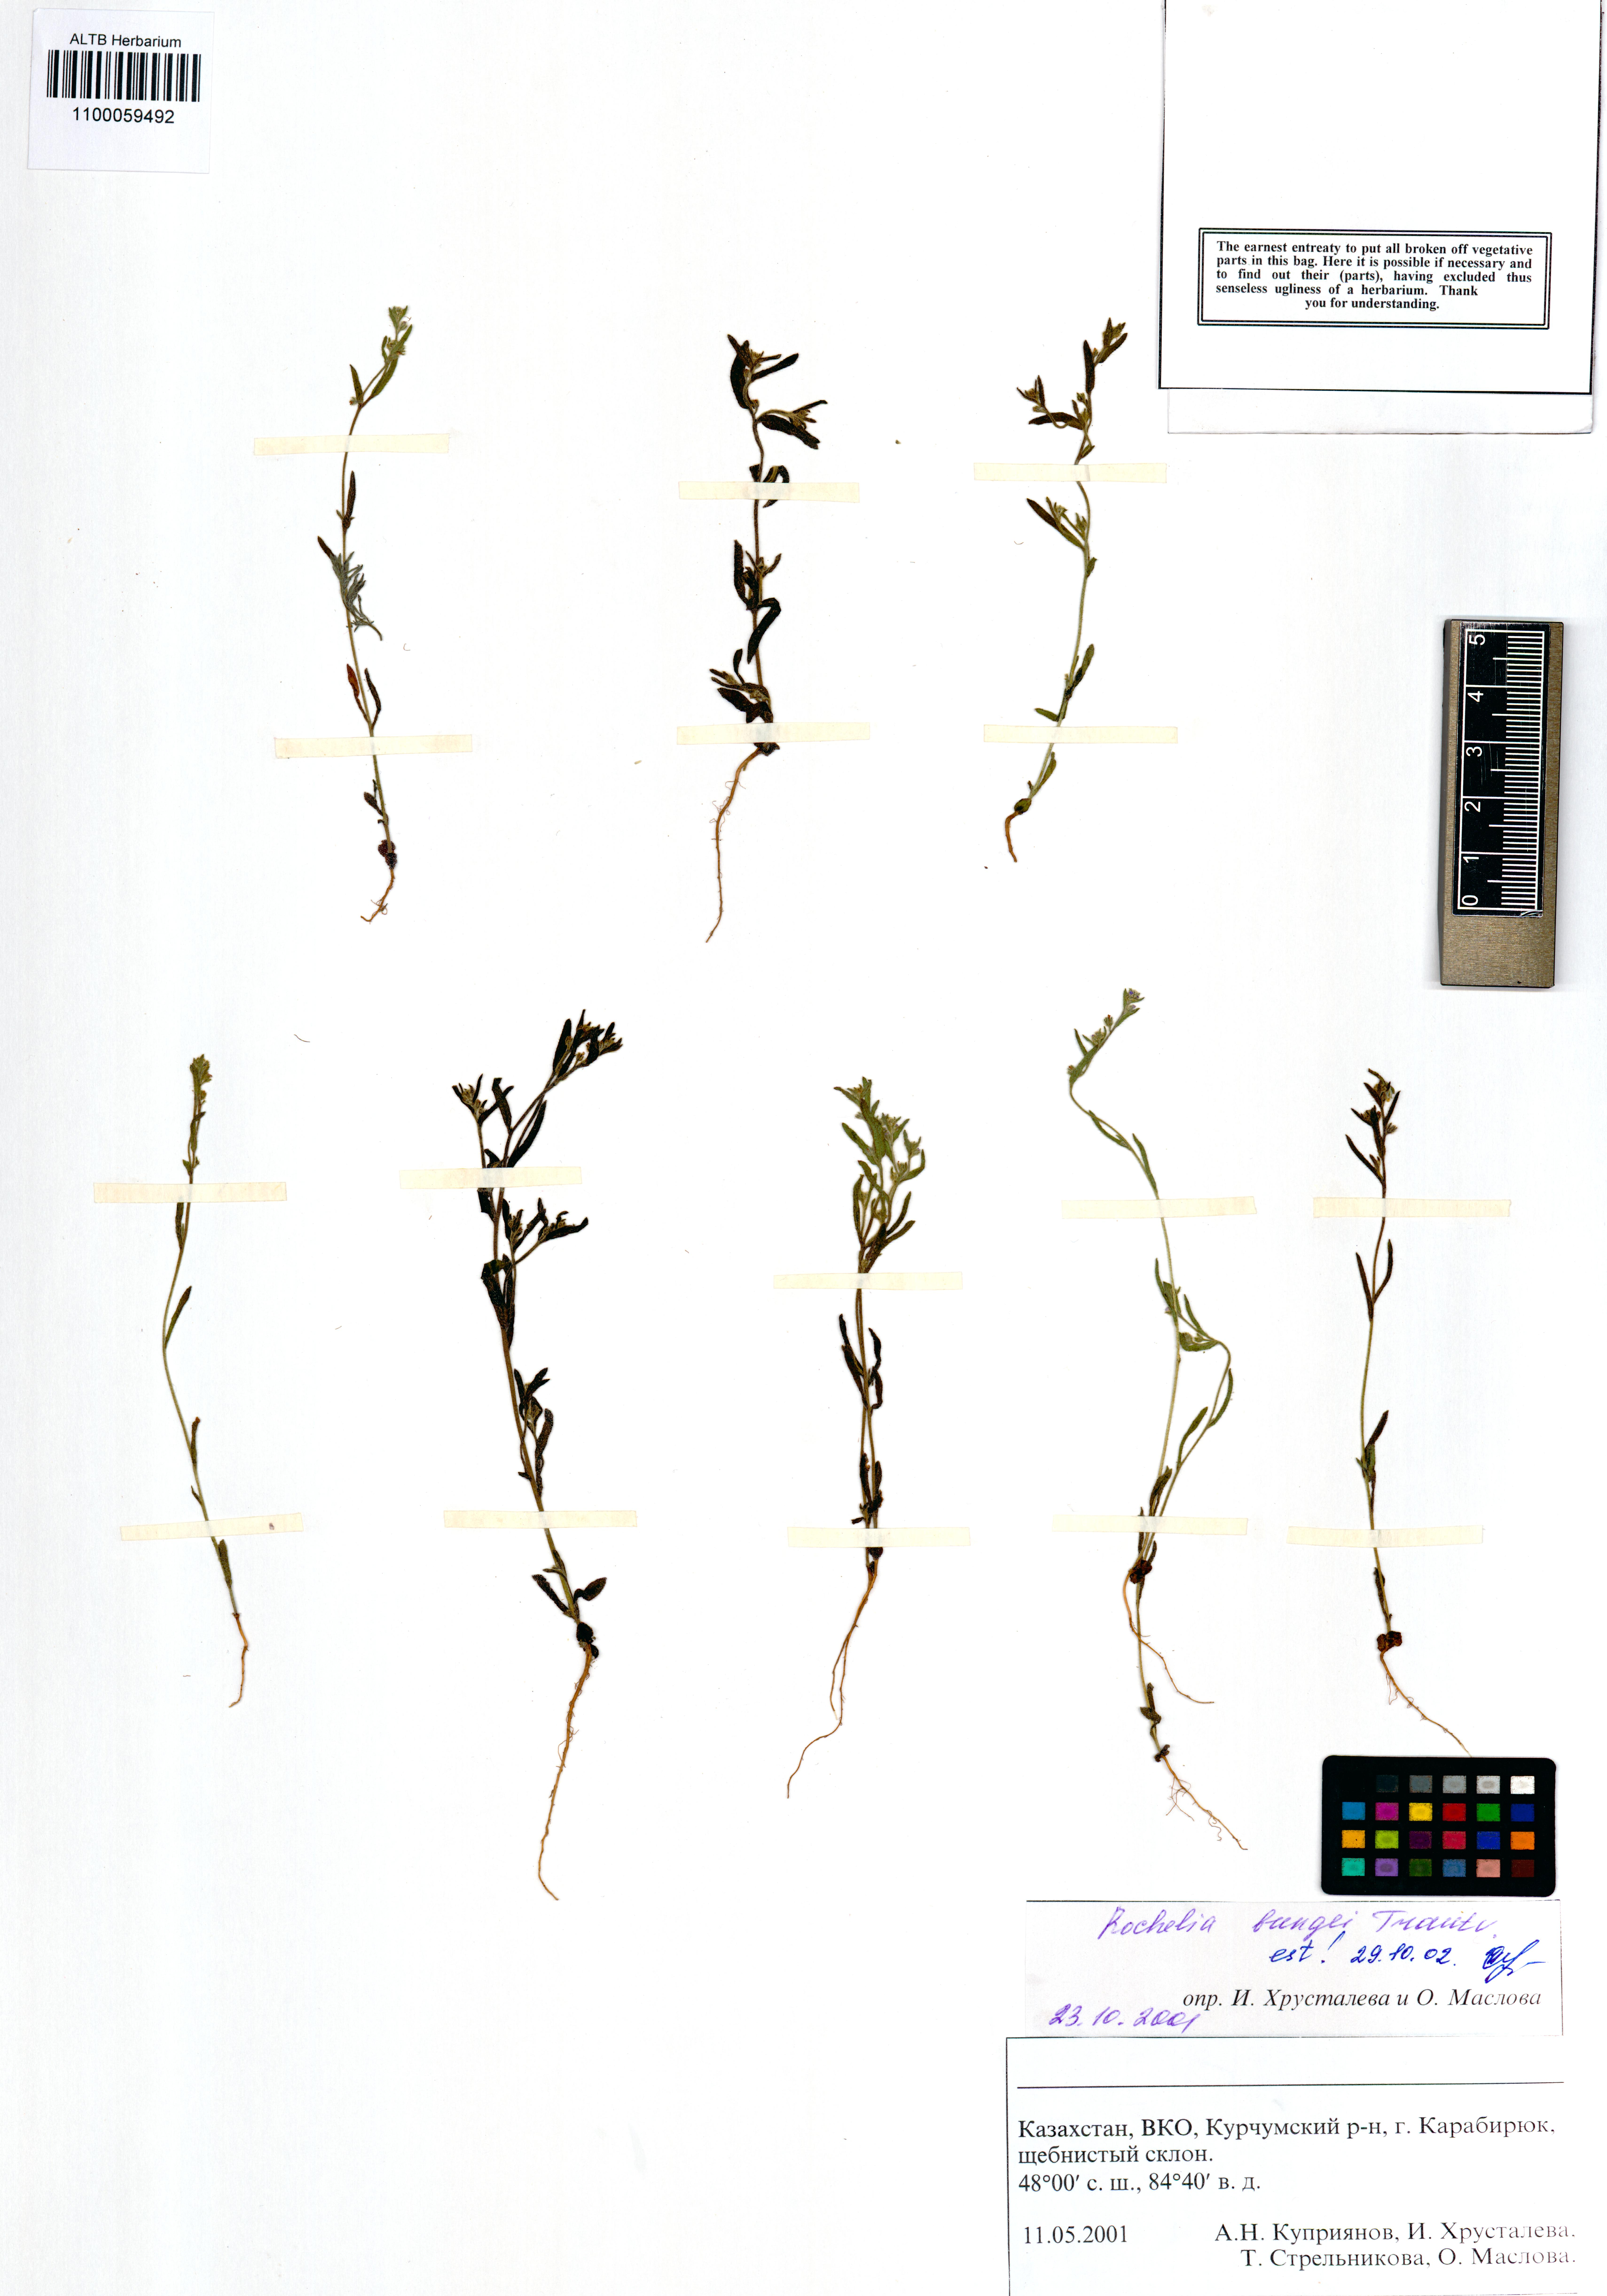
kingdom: Plantae
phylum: Tracheophyta
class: Magnoliopsida
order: Boraginales
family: Boraginaceae
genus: Rochelia
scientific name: Rochelia bungei
